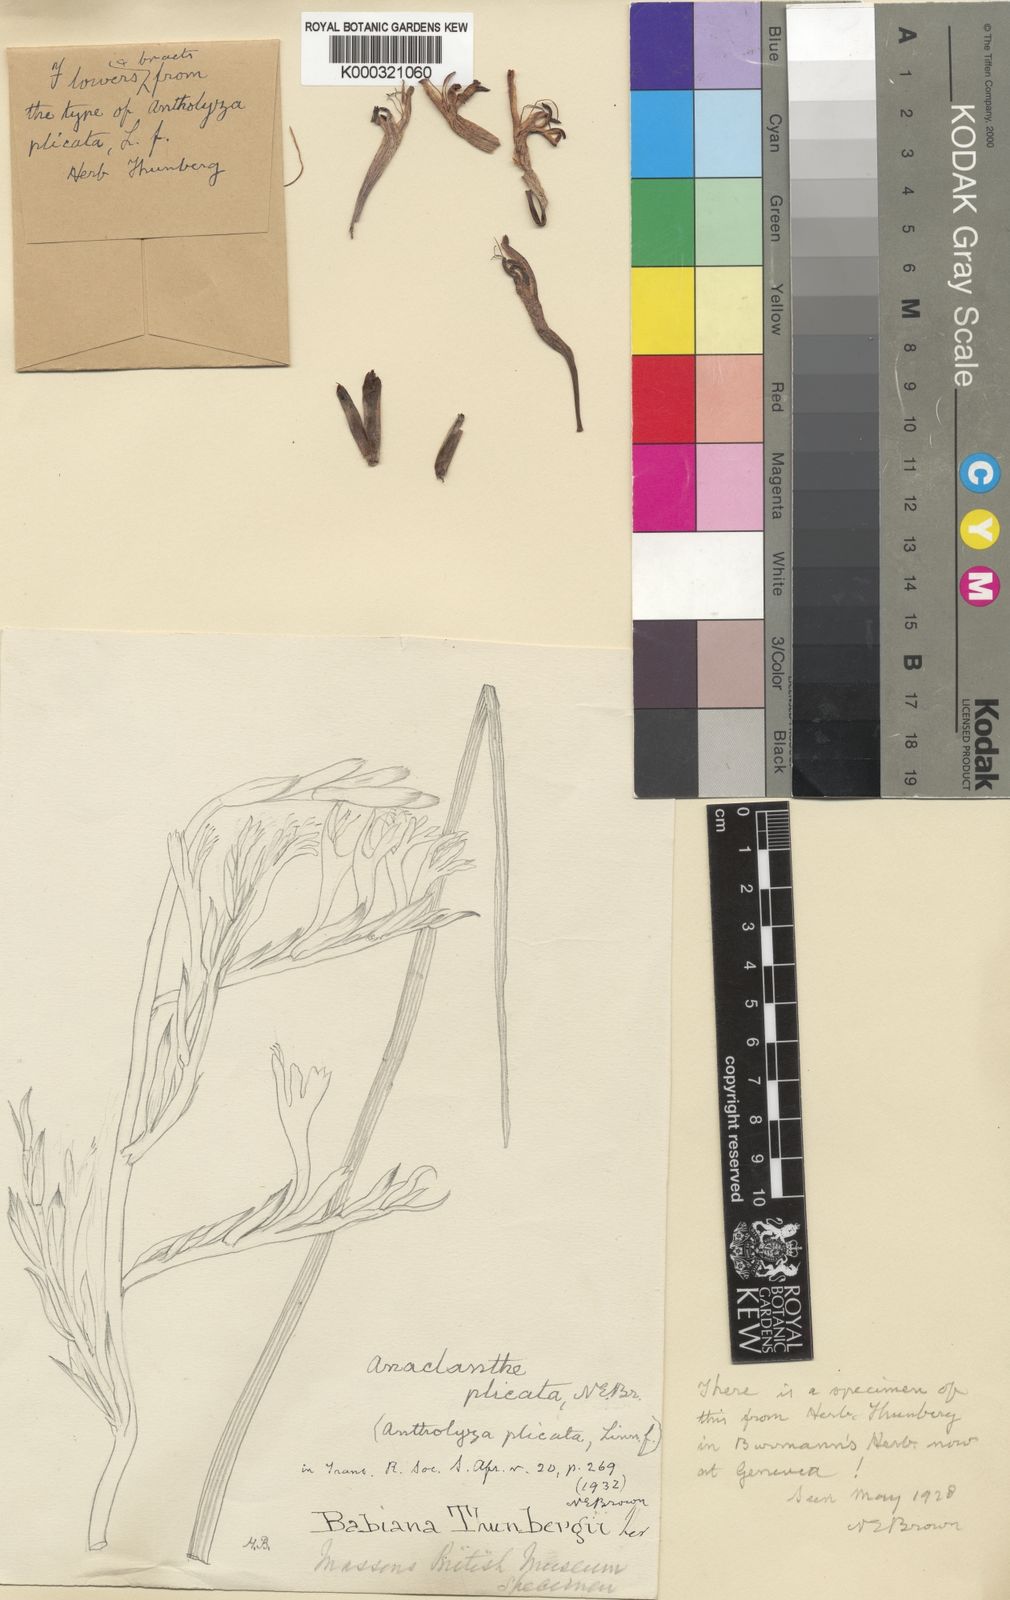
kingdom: Plantae
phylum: Tracheophyta
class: Liliopsida
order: Asparagales
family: Iridaceae
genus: Babiana
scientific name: Babiana hirsuta
